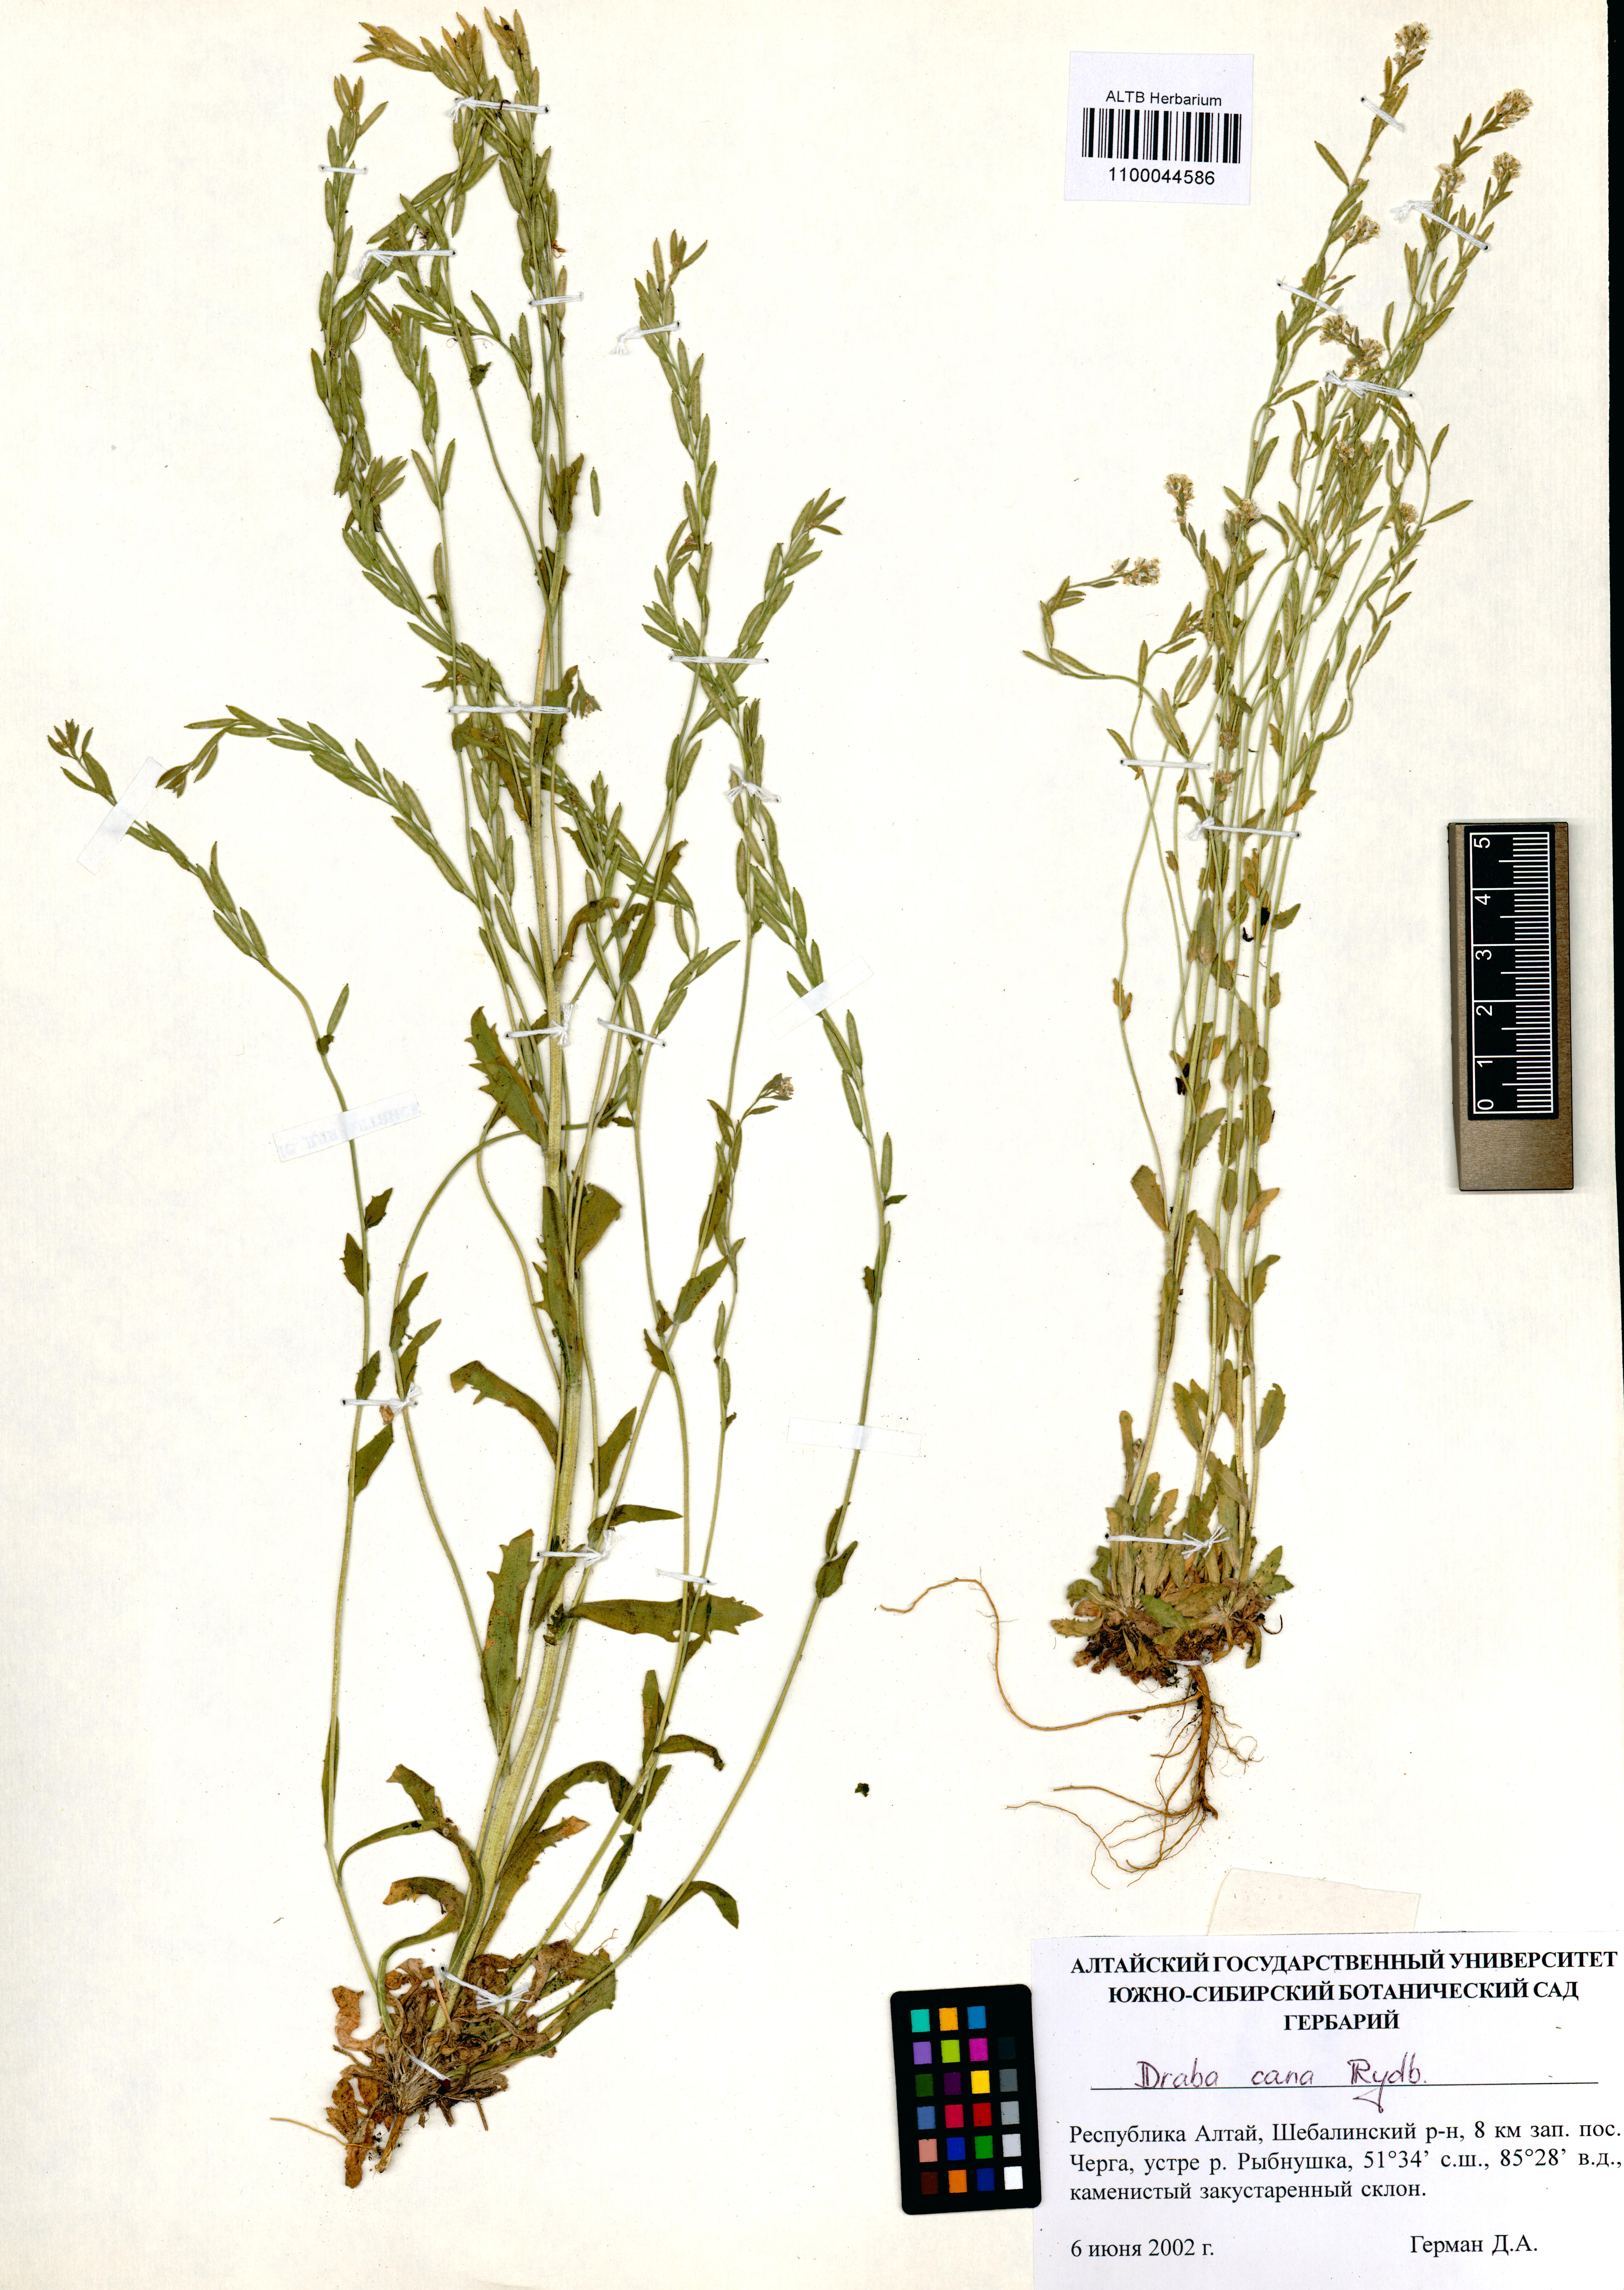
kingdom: Plantae
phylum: Tracheophyta
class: Magnoliopsida
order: Brassicales
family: Brassicaceae
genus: Draba
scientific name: Draba cana
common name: Hoary draba
